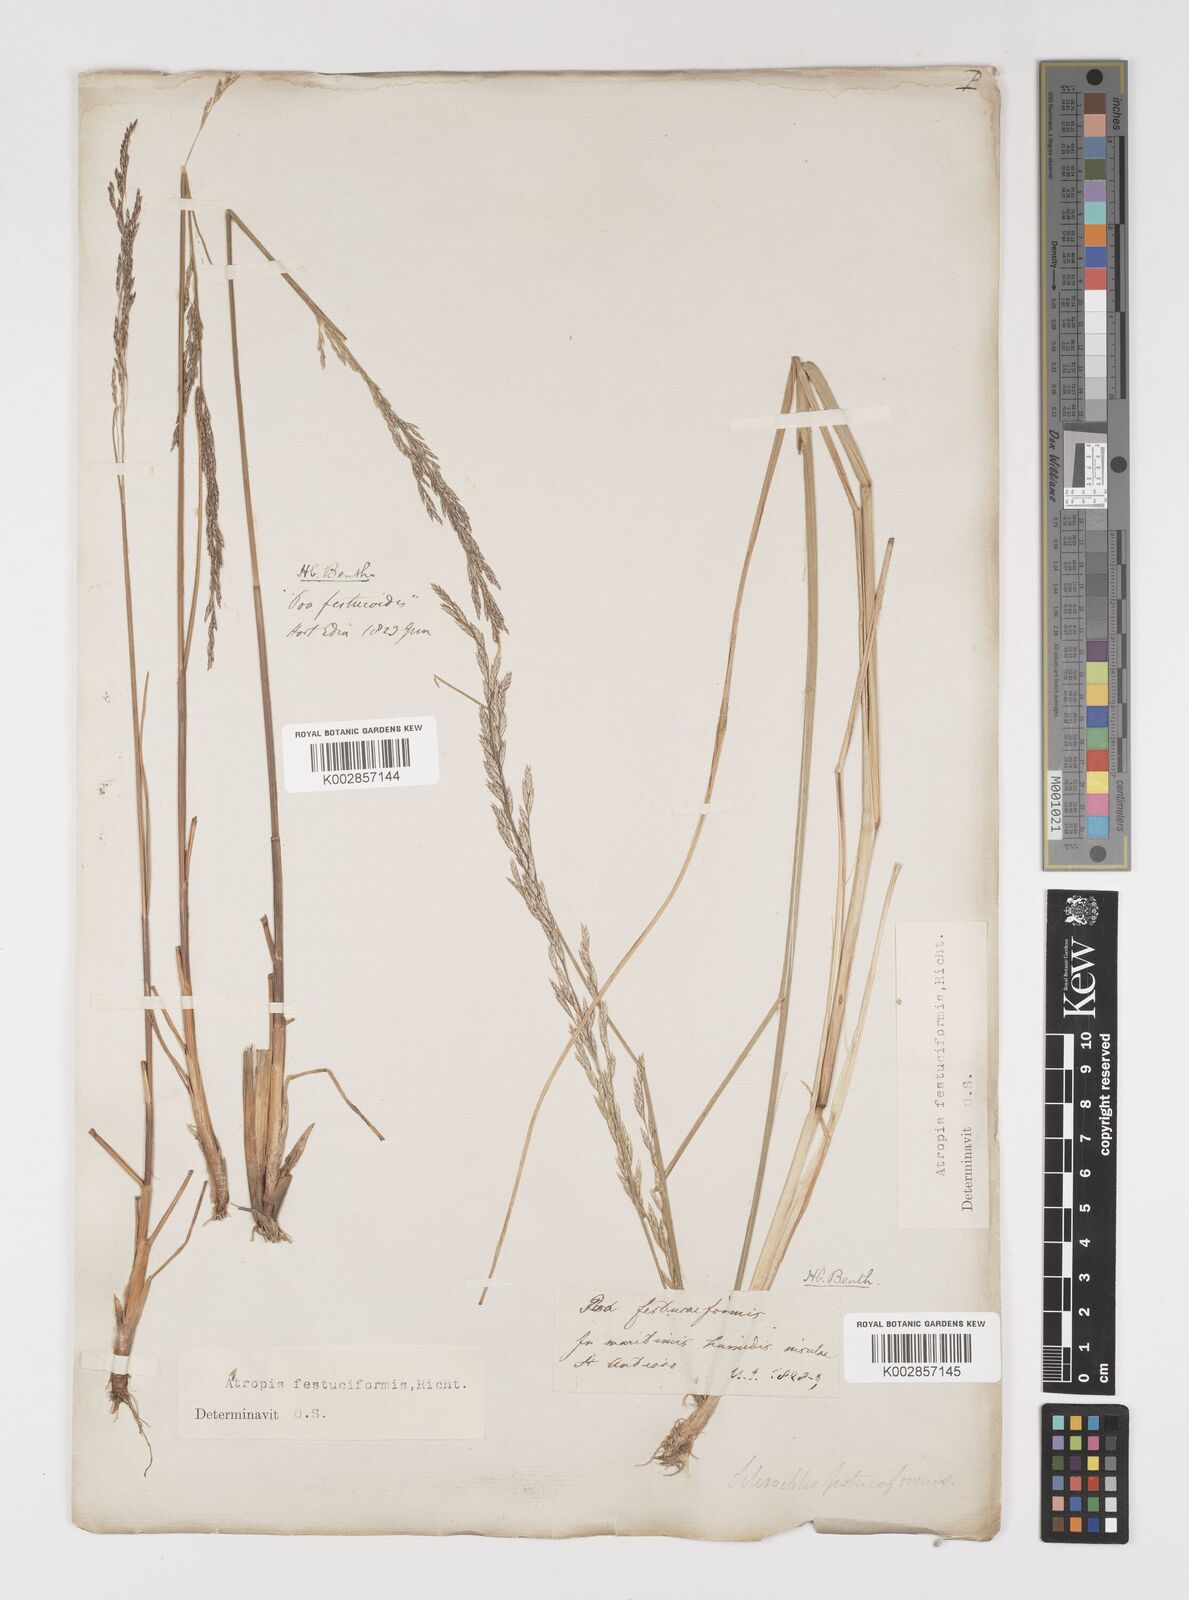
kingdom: Plantae
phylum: Tracheophyta
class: Liliopsida
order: Poales
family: Poaceae
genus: Puccinellia
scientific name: Puccinellia festuciformis
